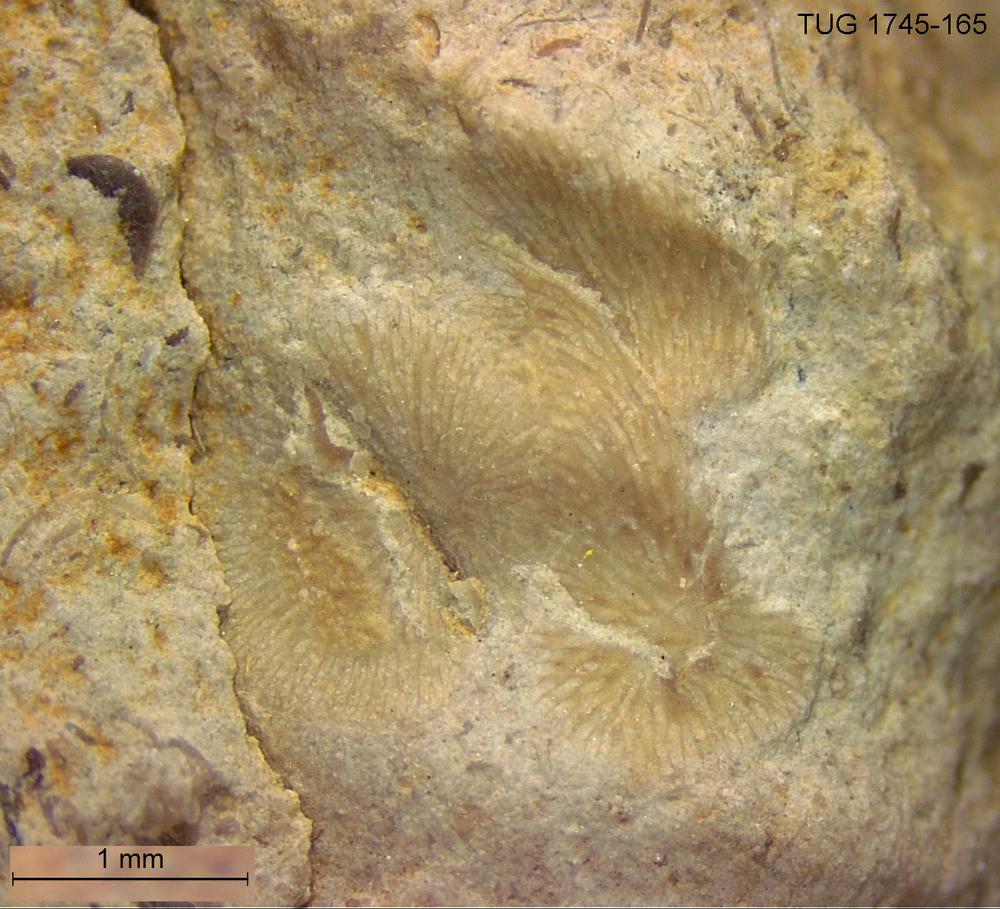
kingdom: Animalia
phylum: Bryozoa
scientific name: Bryozoa
